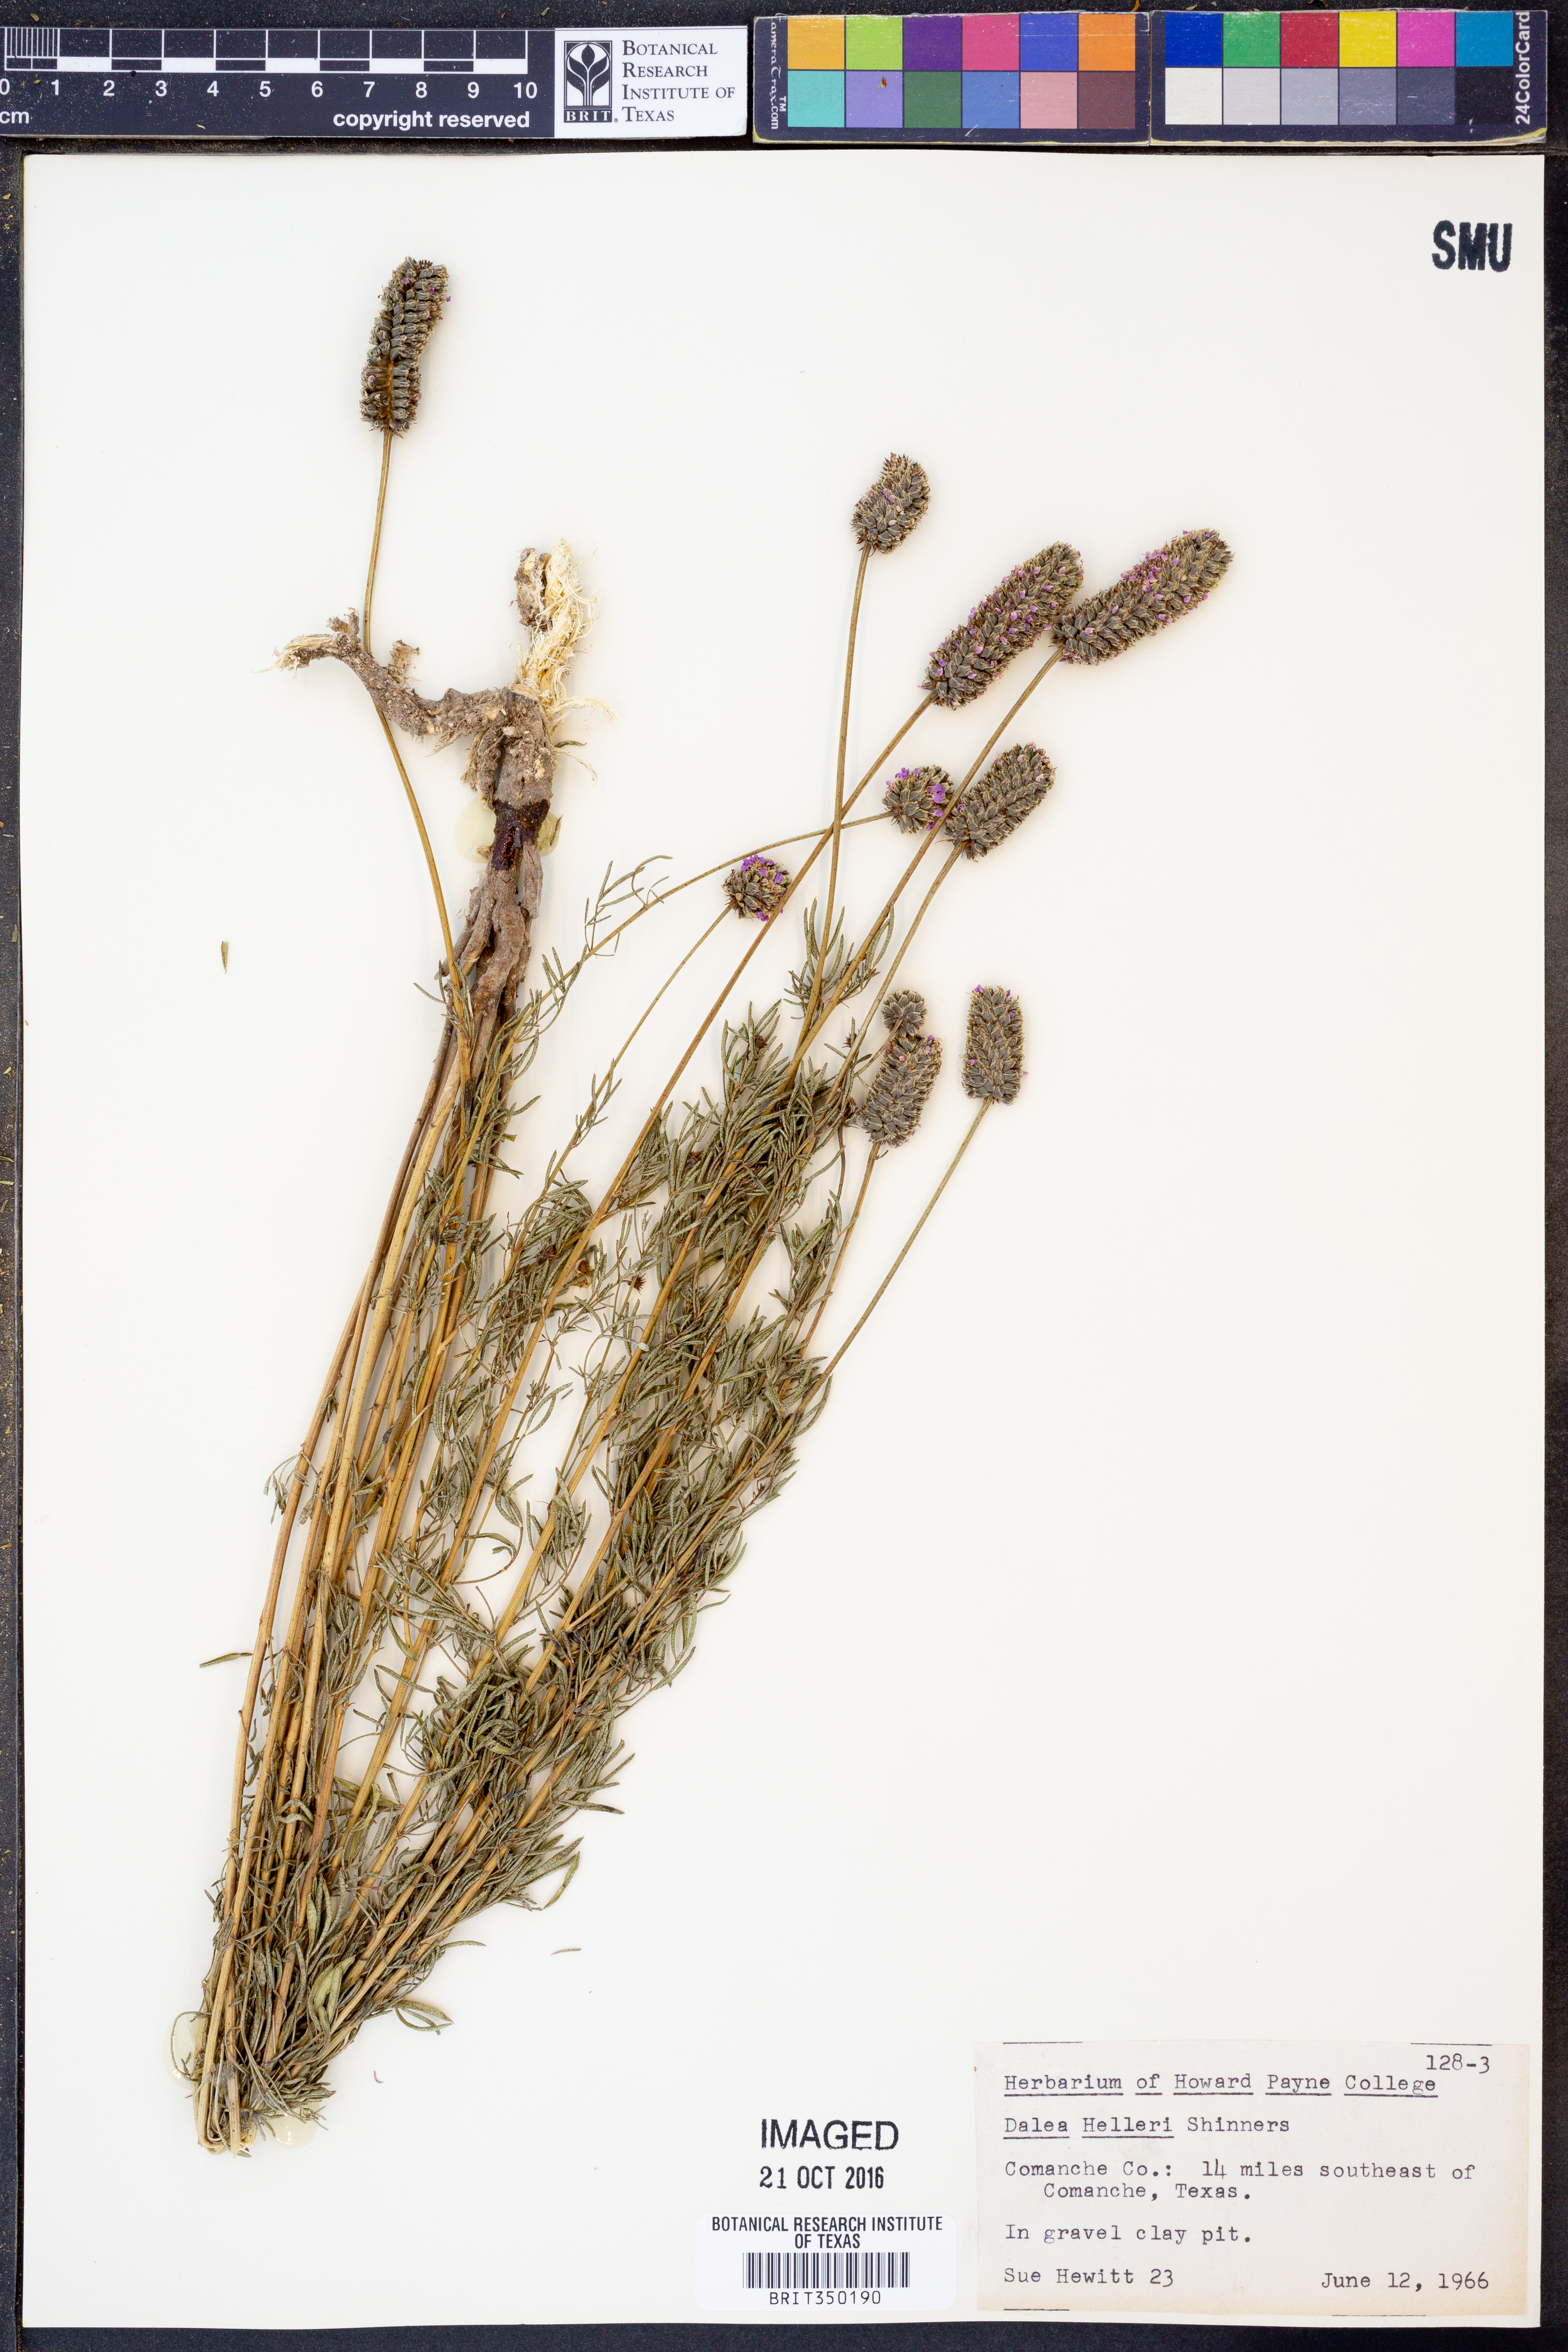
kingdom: Plantae
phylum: Tracheophyta
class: Magnoliopsida
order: Fabales
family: Fabaceae
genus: Dalea
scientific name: Dalea compacta
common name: Compact prairie-clover
